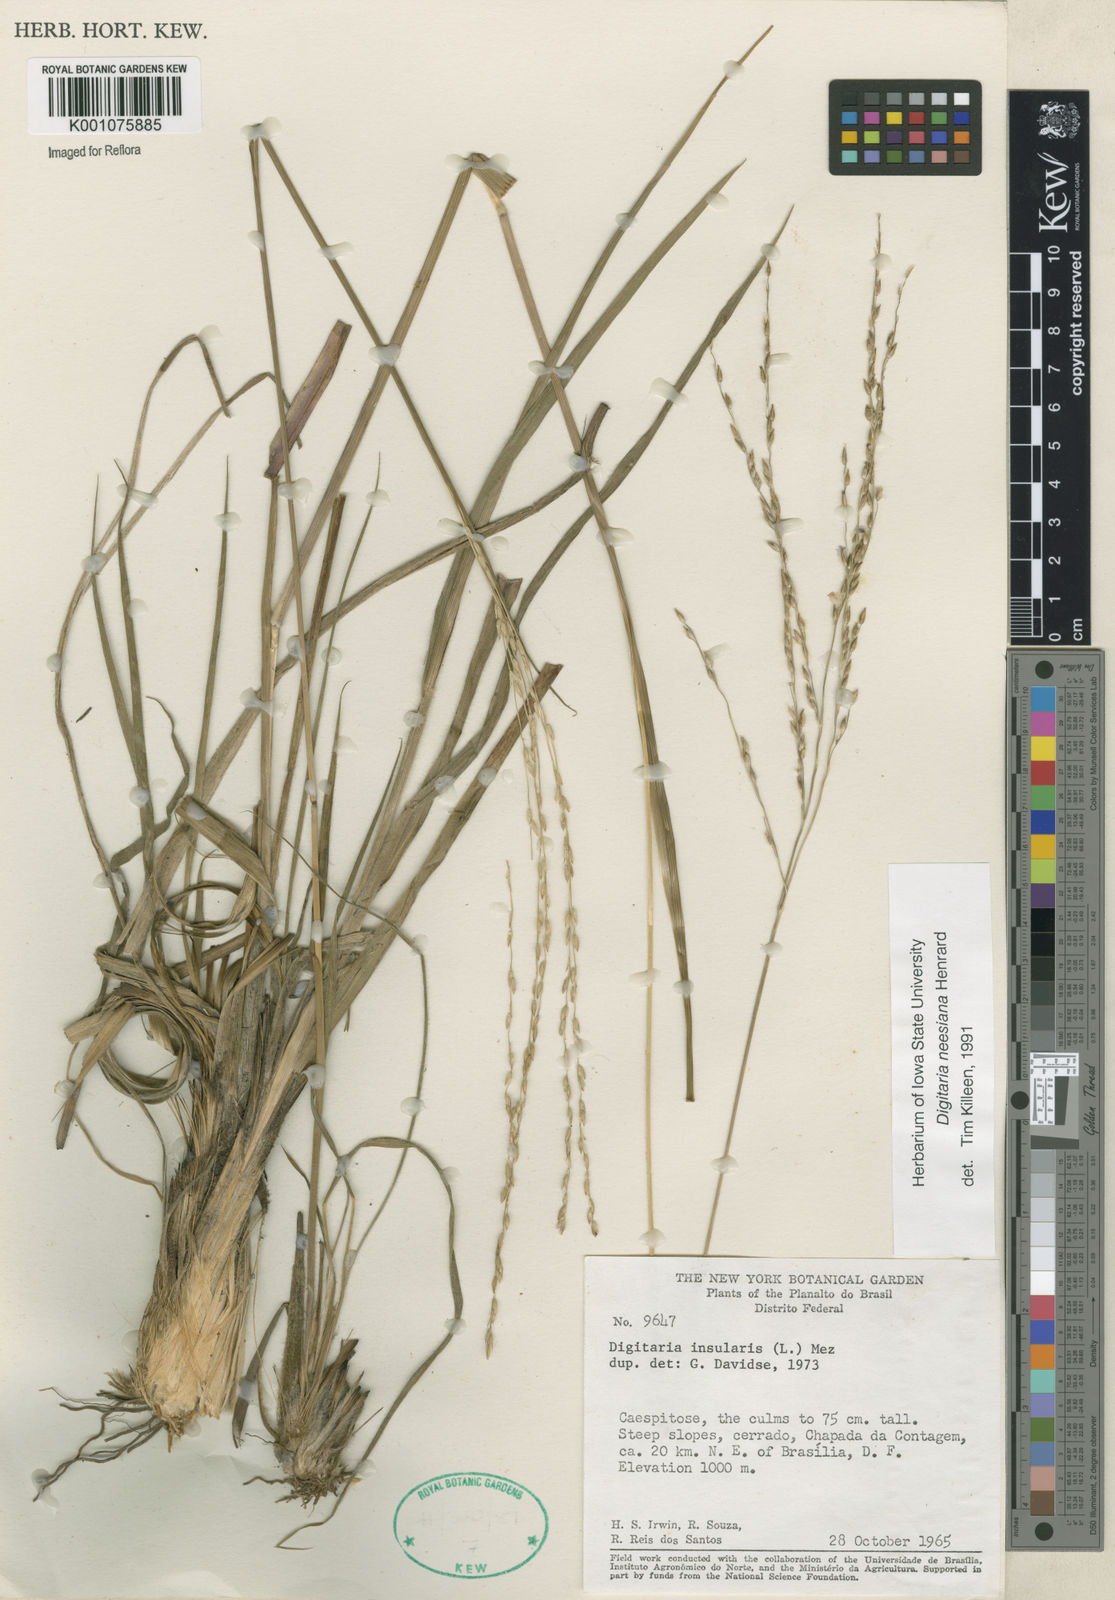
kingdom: Plantae
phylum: Tracheophyta
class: Liliopsida
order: Poales
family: Poaceae
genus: Digitaria
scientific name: Digitaria neesiana
